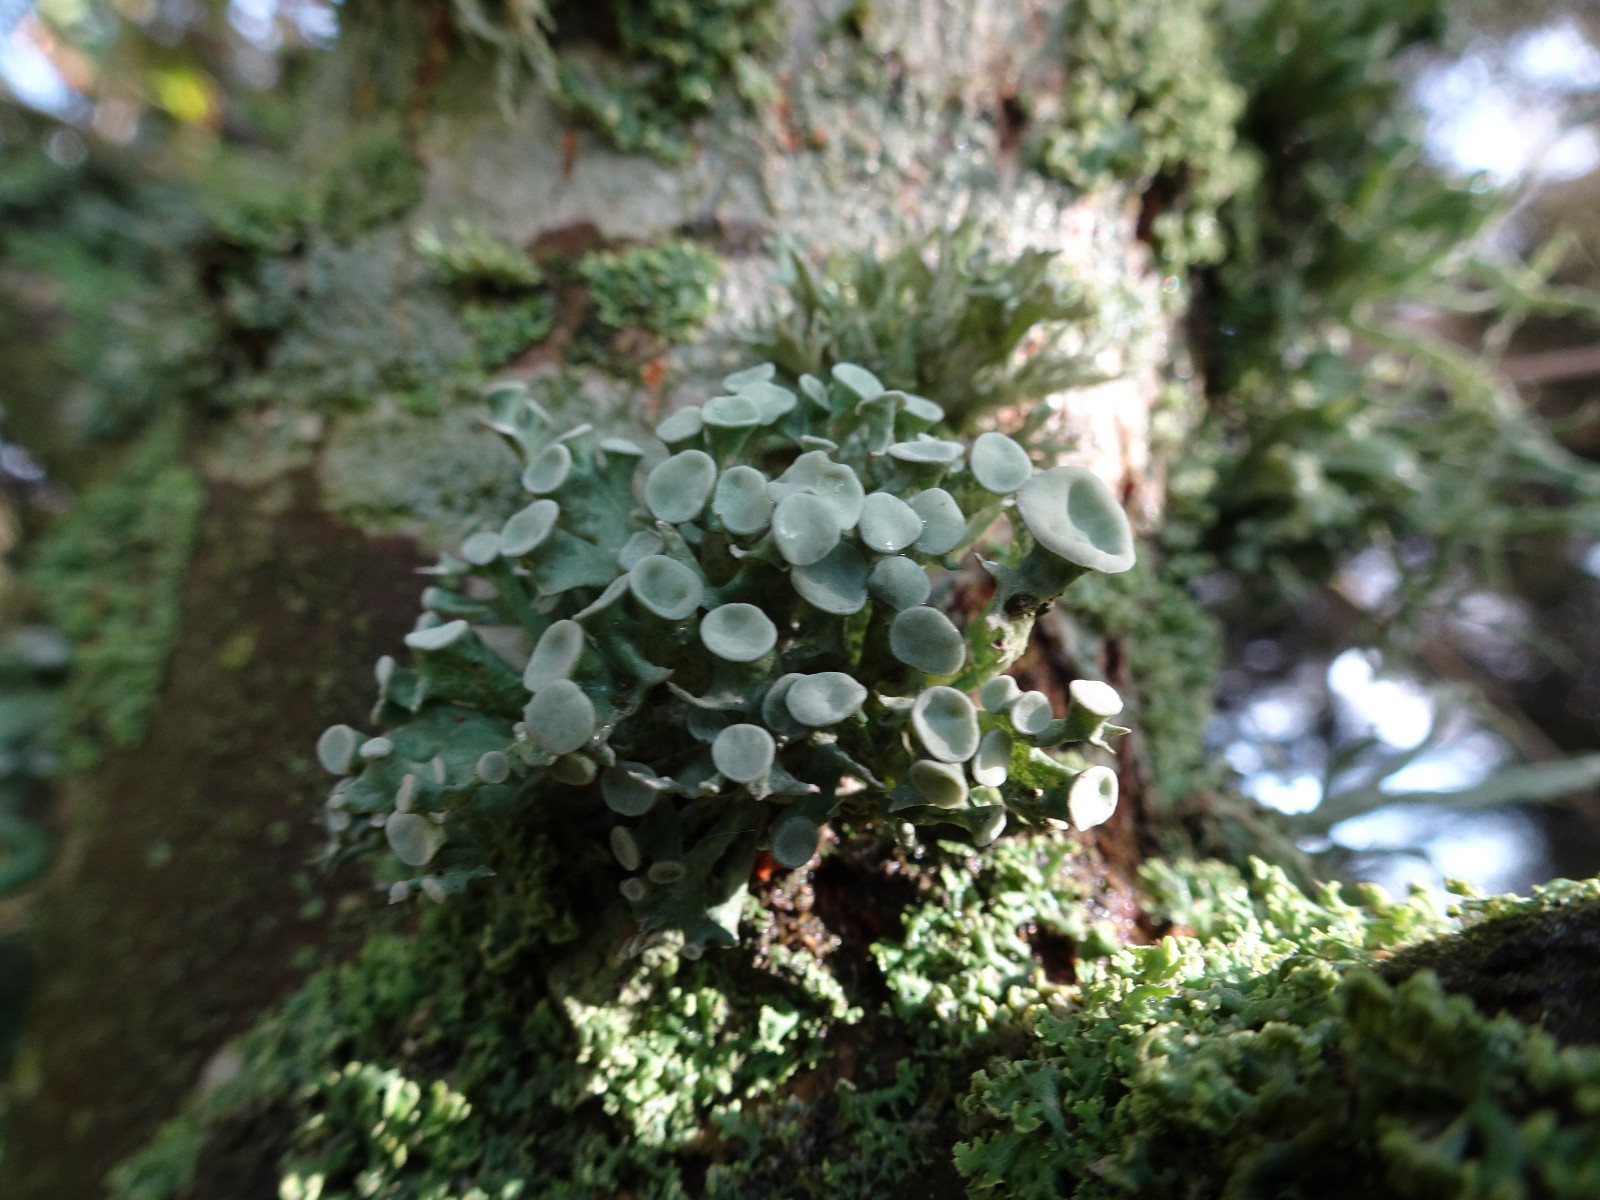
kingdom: Fungi
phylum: Ascomycota
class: Lecanoromycetes
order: Lecanorales
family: Ramalinaceae
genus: Ramalina
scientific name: Ramalina fastigiata
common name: tue-grenlav
